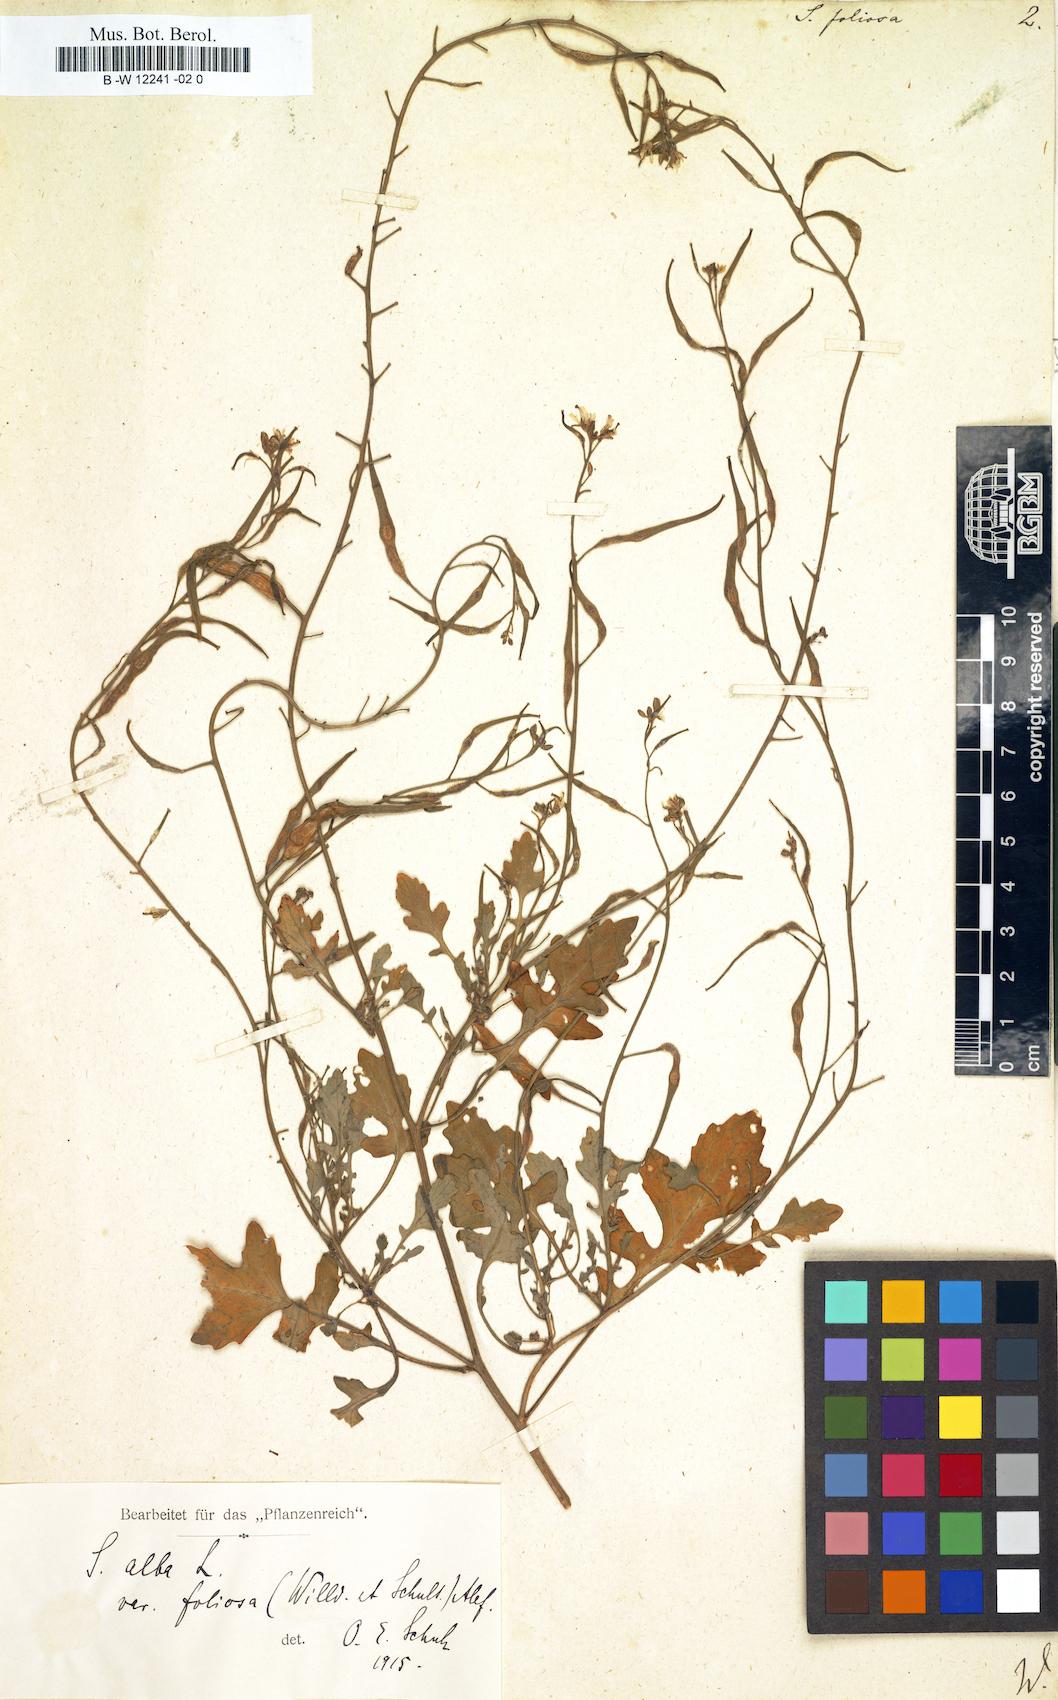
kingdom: Plantae
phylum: Tracheophyta
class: Magnoliopsida
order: Brassicales
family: Brassicaceae
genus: Sinapis
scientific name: Sinapis alba
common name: White mustard
